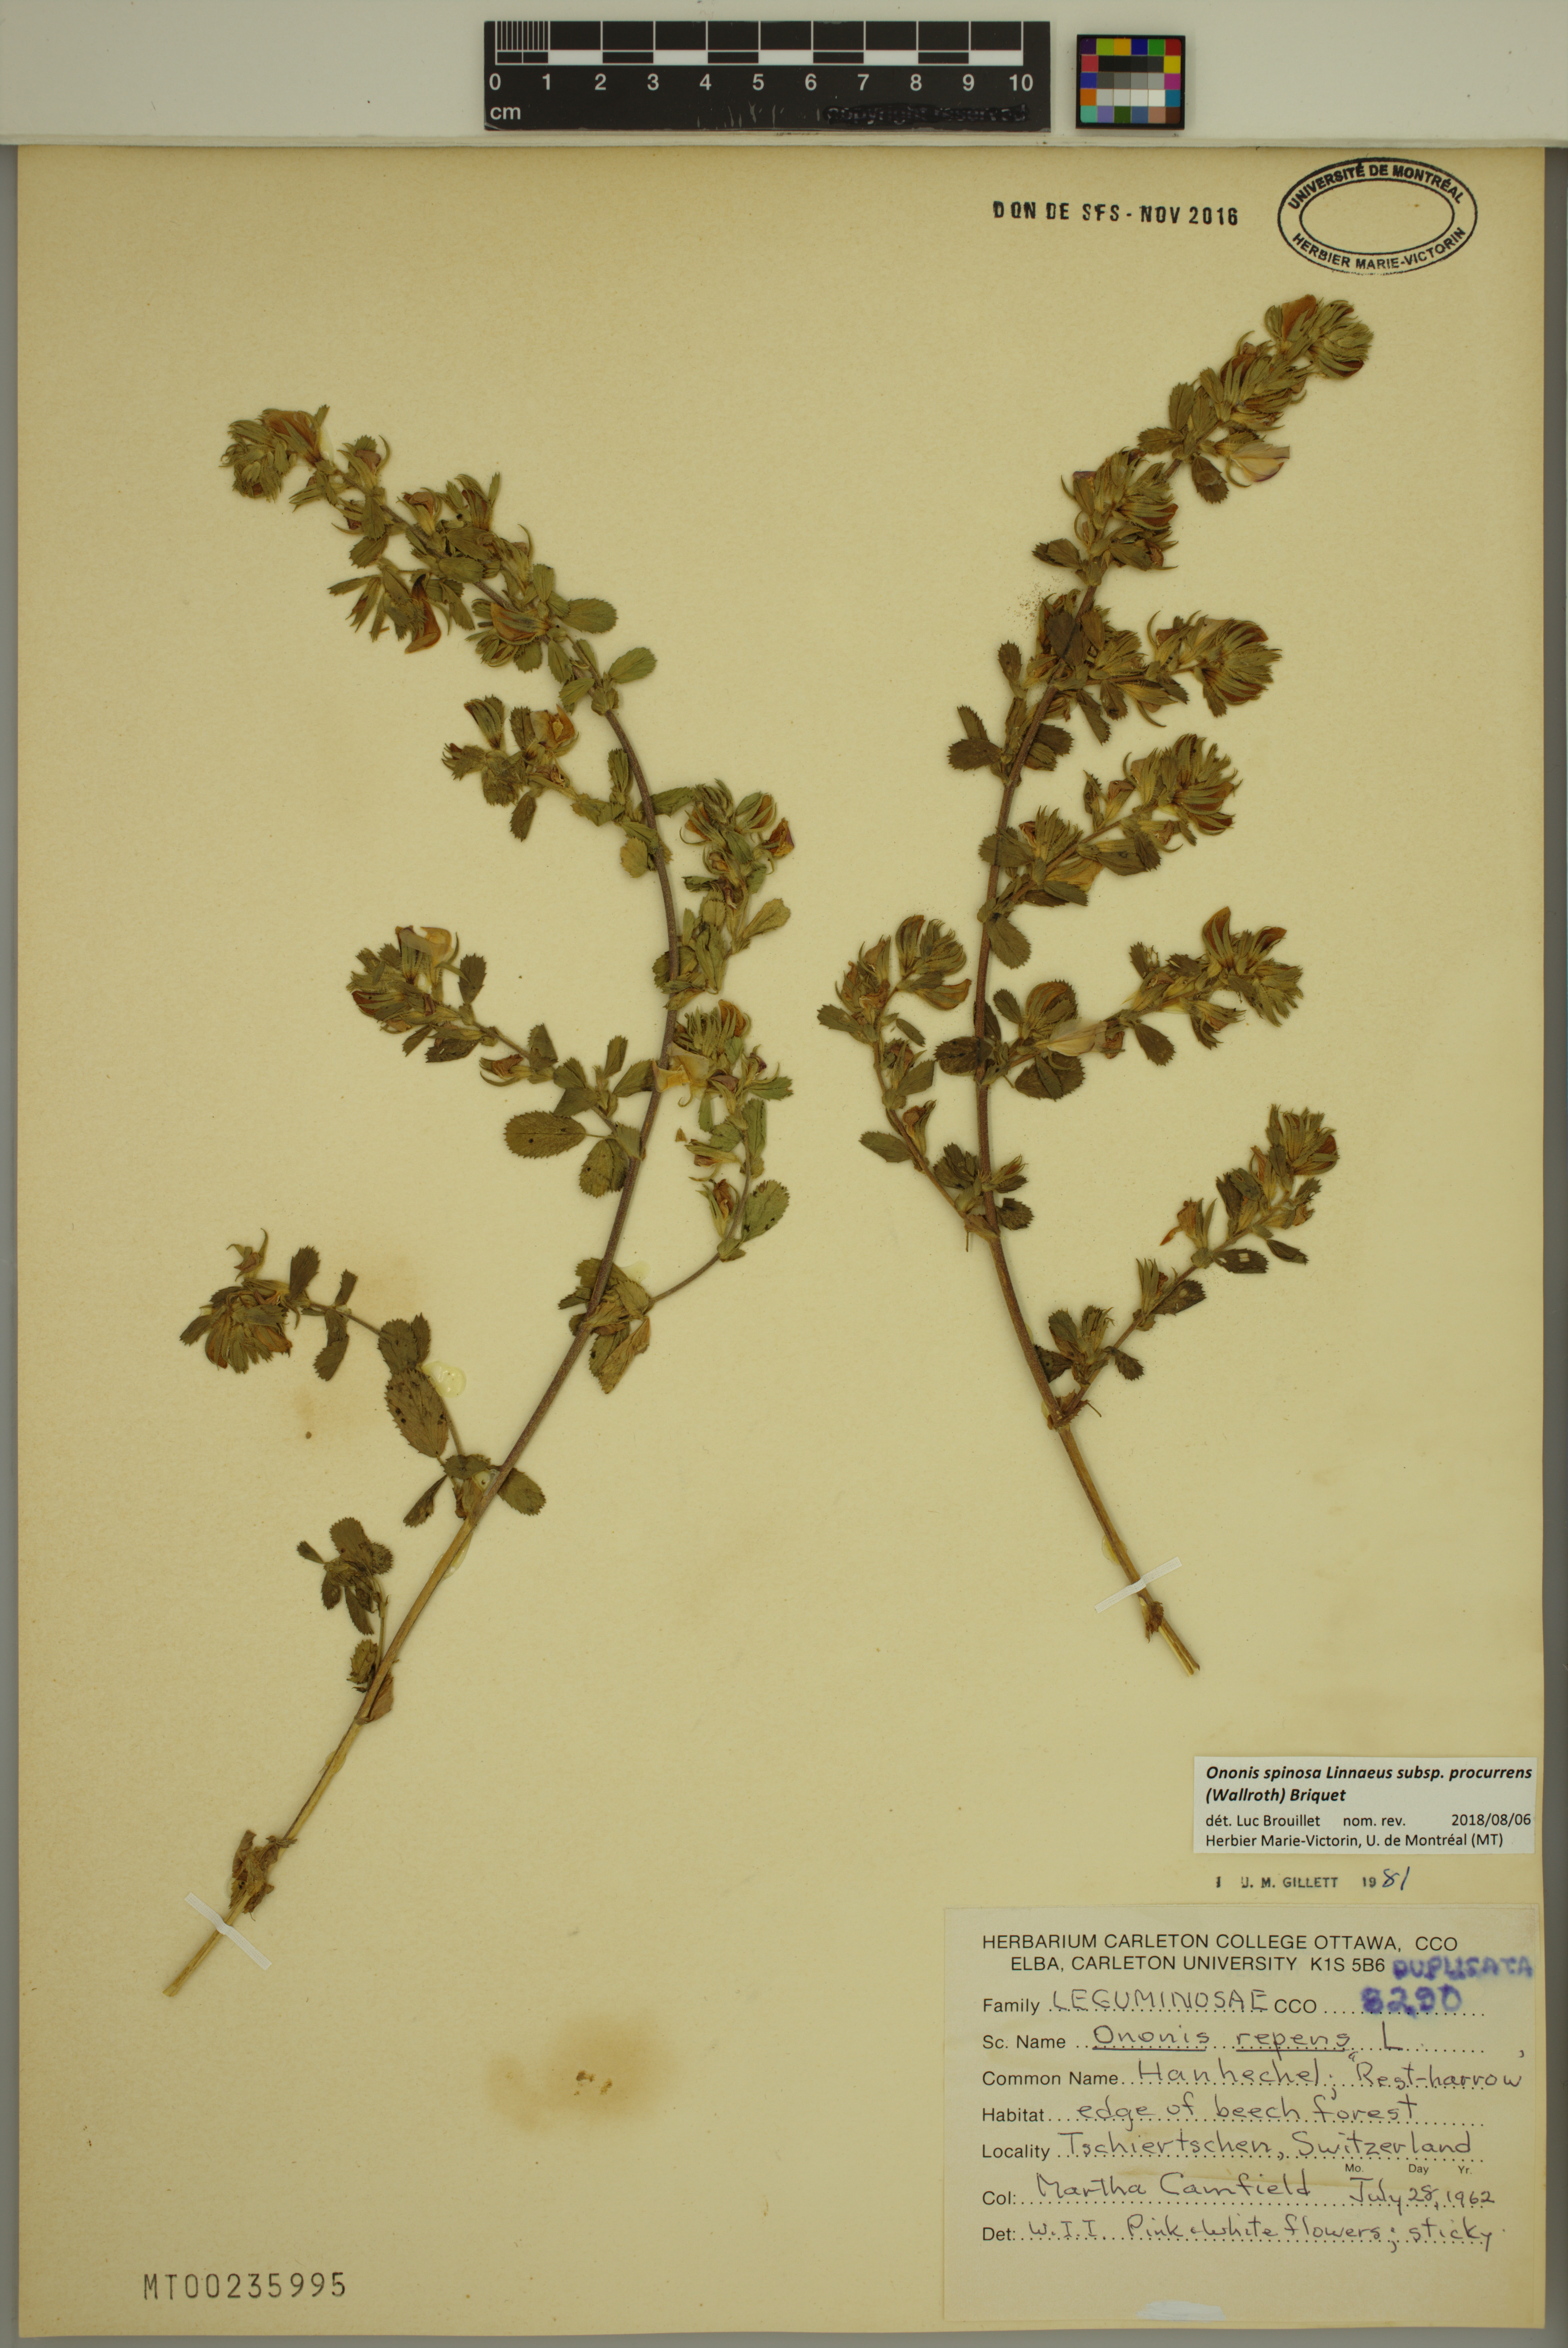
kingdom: Plantae
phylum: Tracheophyta
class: Magnoliopsida
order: Fabales
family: Fabaceae
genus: Ononis
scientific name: Ononis spinosa
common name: Spiny restharrow
